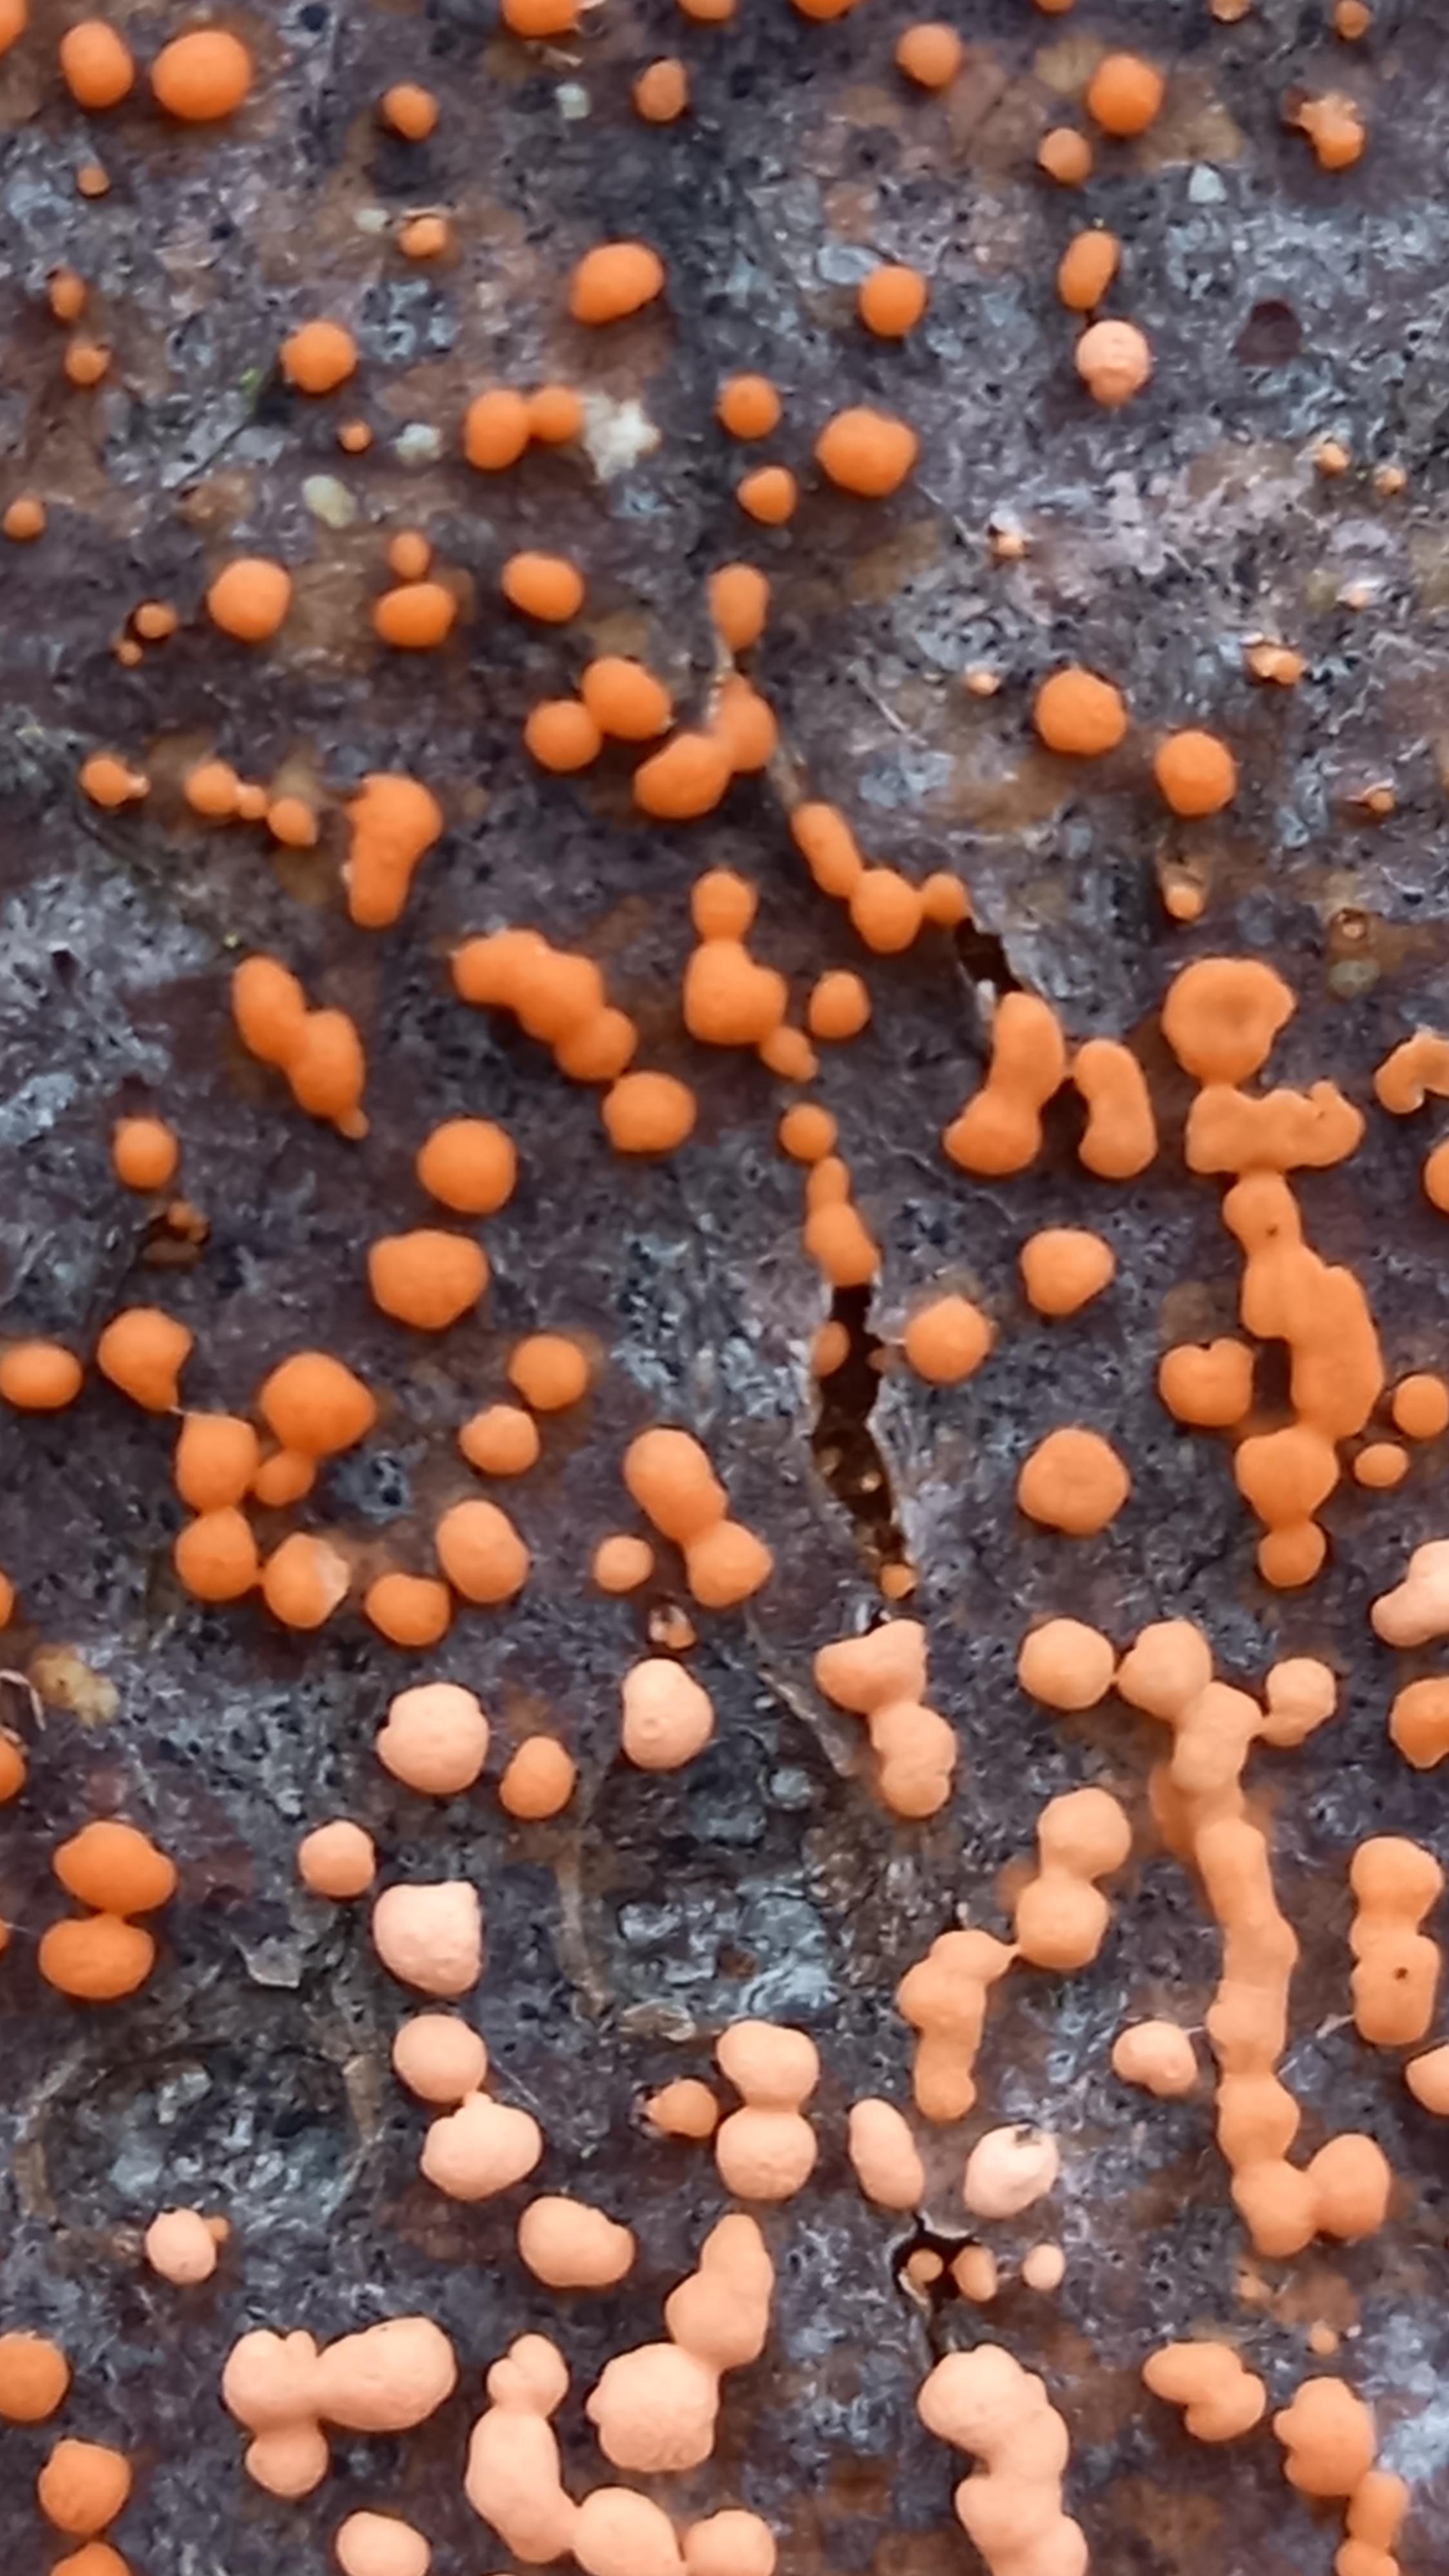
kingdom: Fungi
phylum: Ascomycota
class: Sordariomycetes
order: Hypocreales
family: Nectriaceae
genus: Nectria
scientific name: Nectria cinnabarina
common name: almindelig cinnobersvamp
